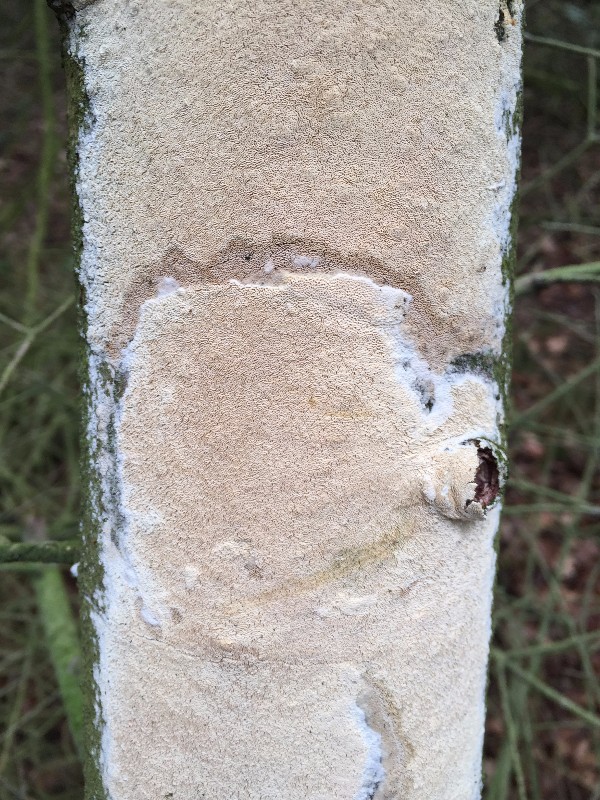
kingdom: Fungi
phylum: Basidiomycota
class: Agaricomycetes
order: Hymenochaetales
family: Schizoporaceae
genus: Xylodon
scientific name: Xylodon subtropicus
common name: labyrint-tandsvamp
